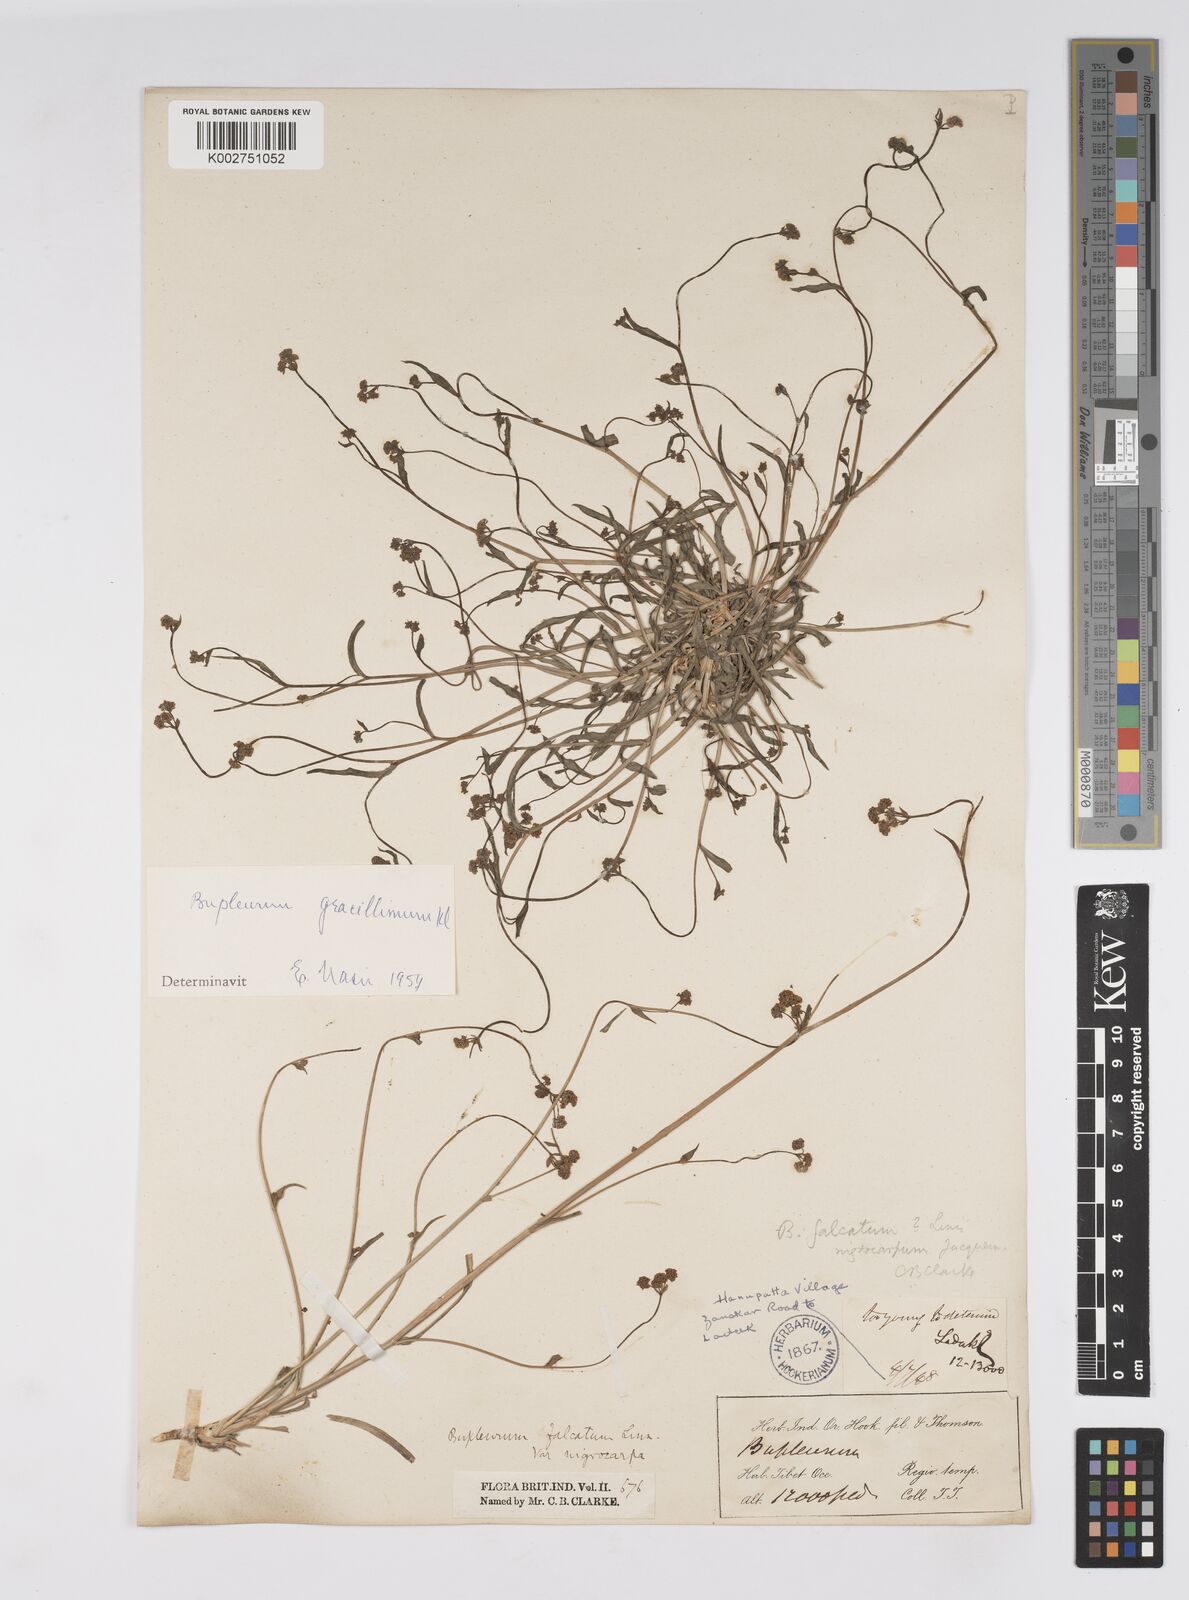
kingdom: Plantae
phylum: Tracheophyta
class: Magnoliopsida
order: Apiales
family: Apiaceae
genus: Bupleurum
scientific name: Bupleurum gracillimum
